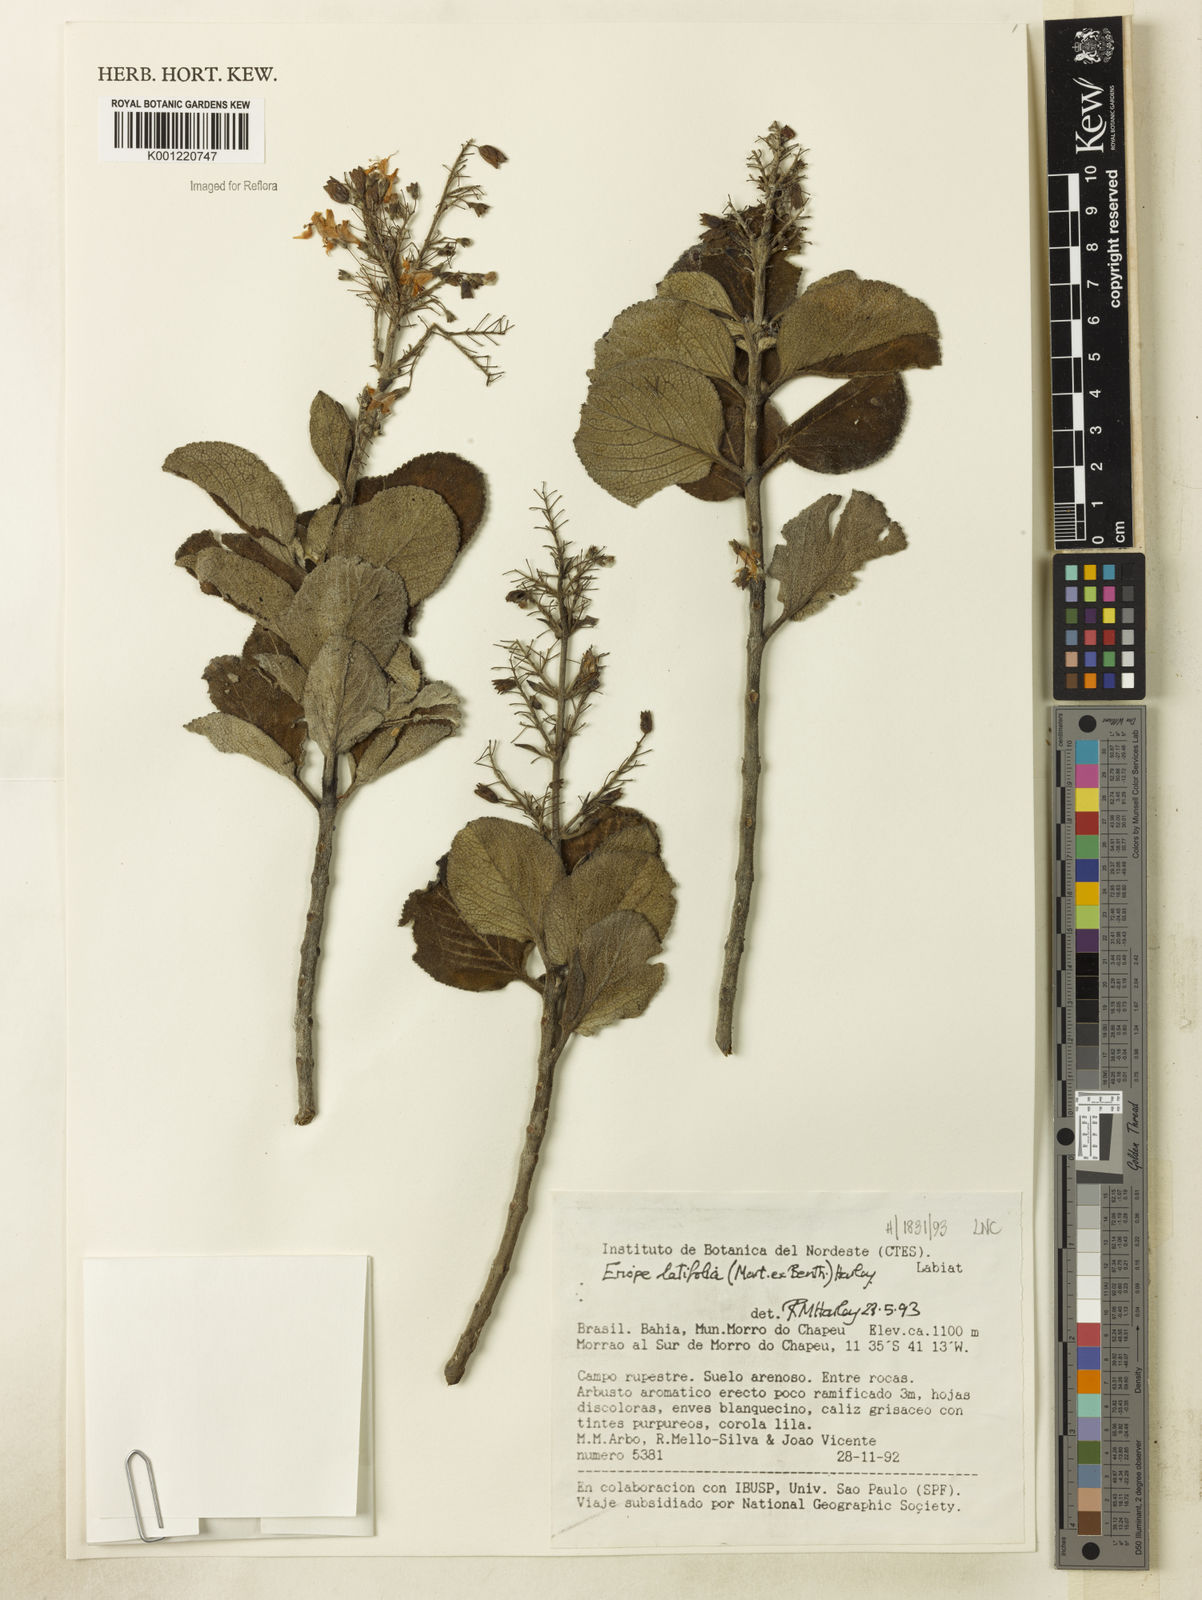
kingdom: Plantae
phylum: Tracheophyta
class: Magnoliopsida
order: Lamiales
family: Lamiaceae
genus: Eriope
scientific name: Eriope latifolia
